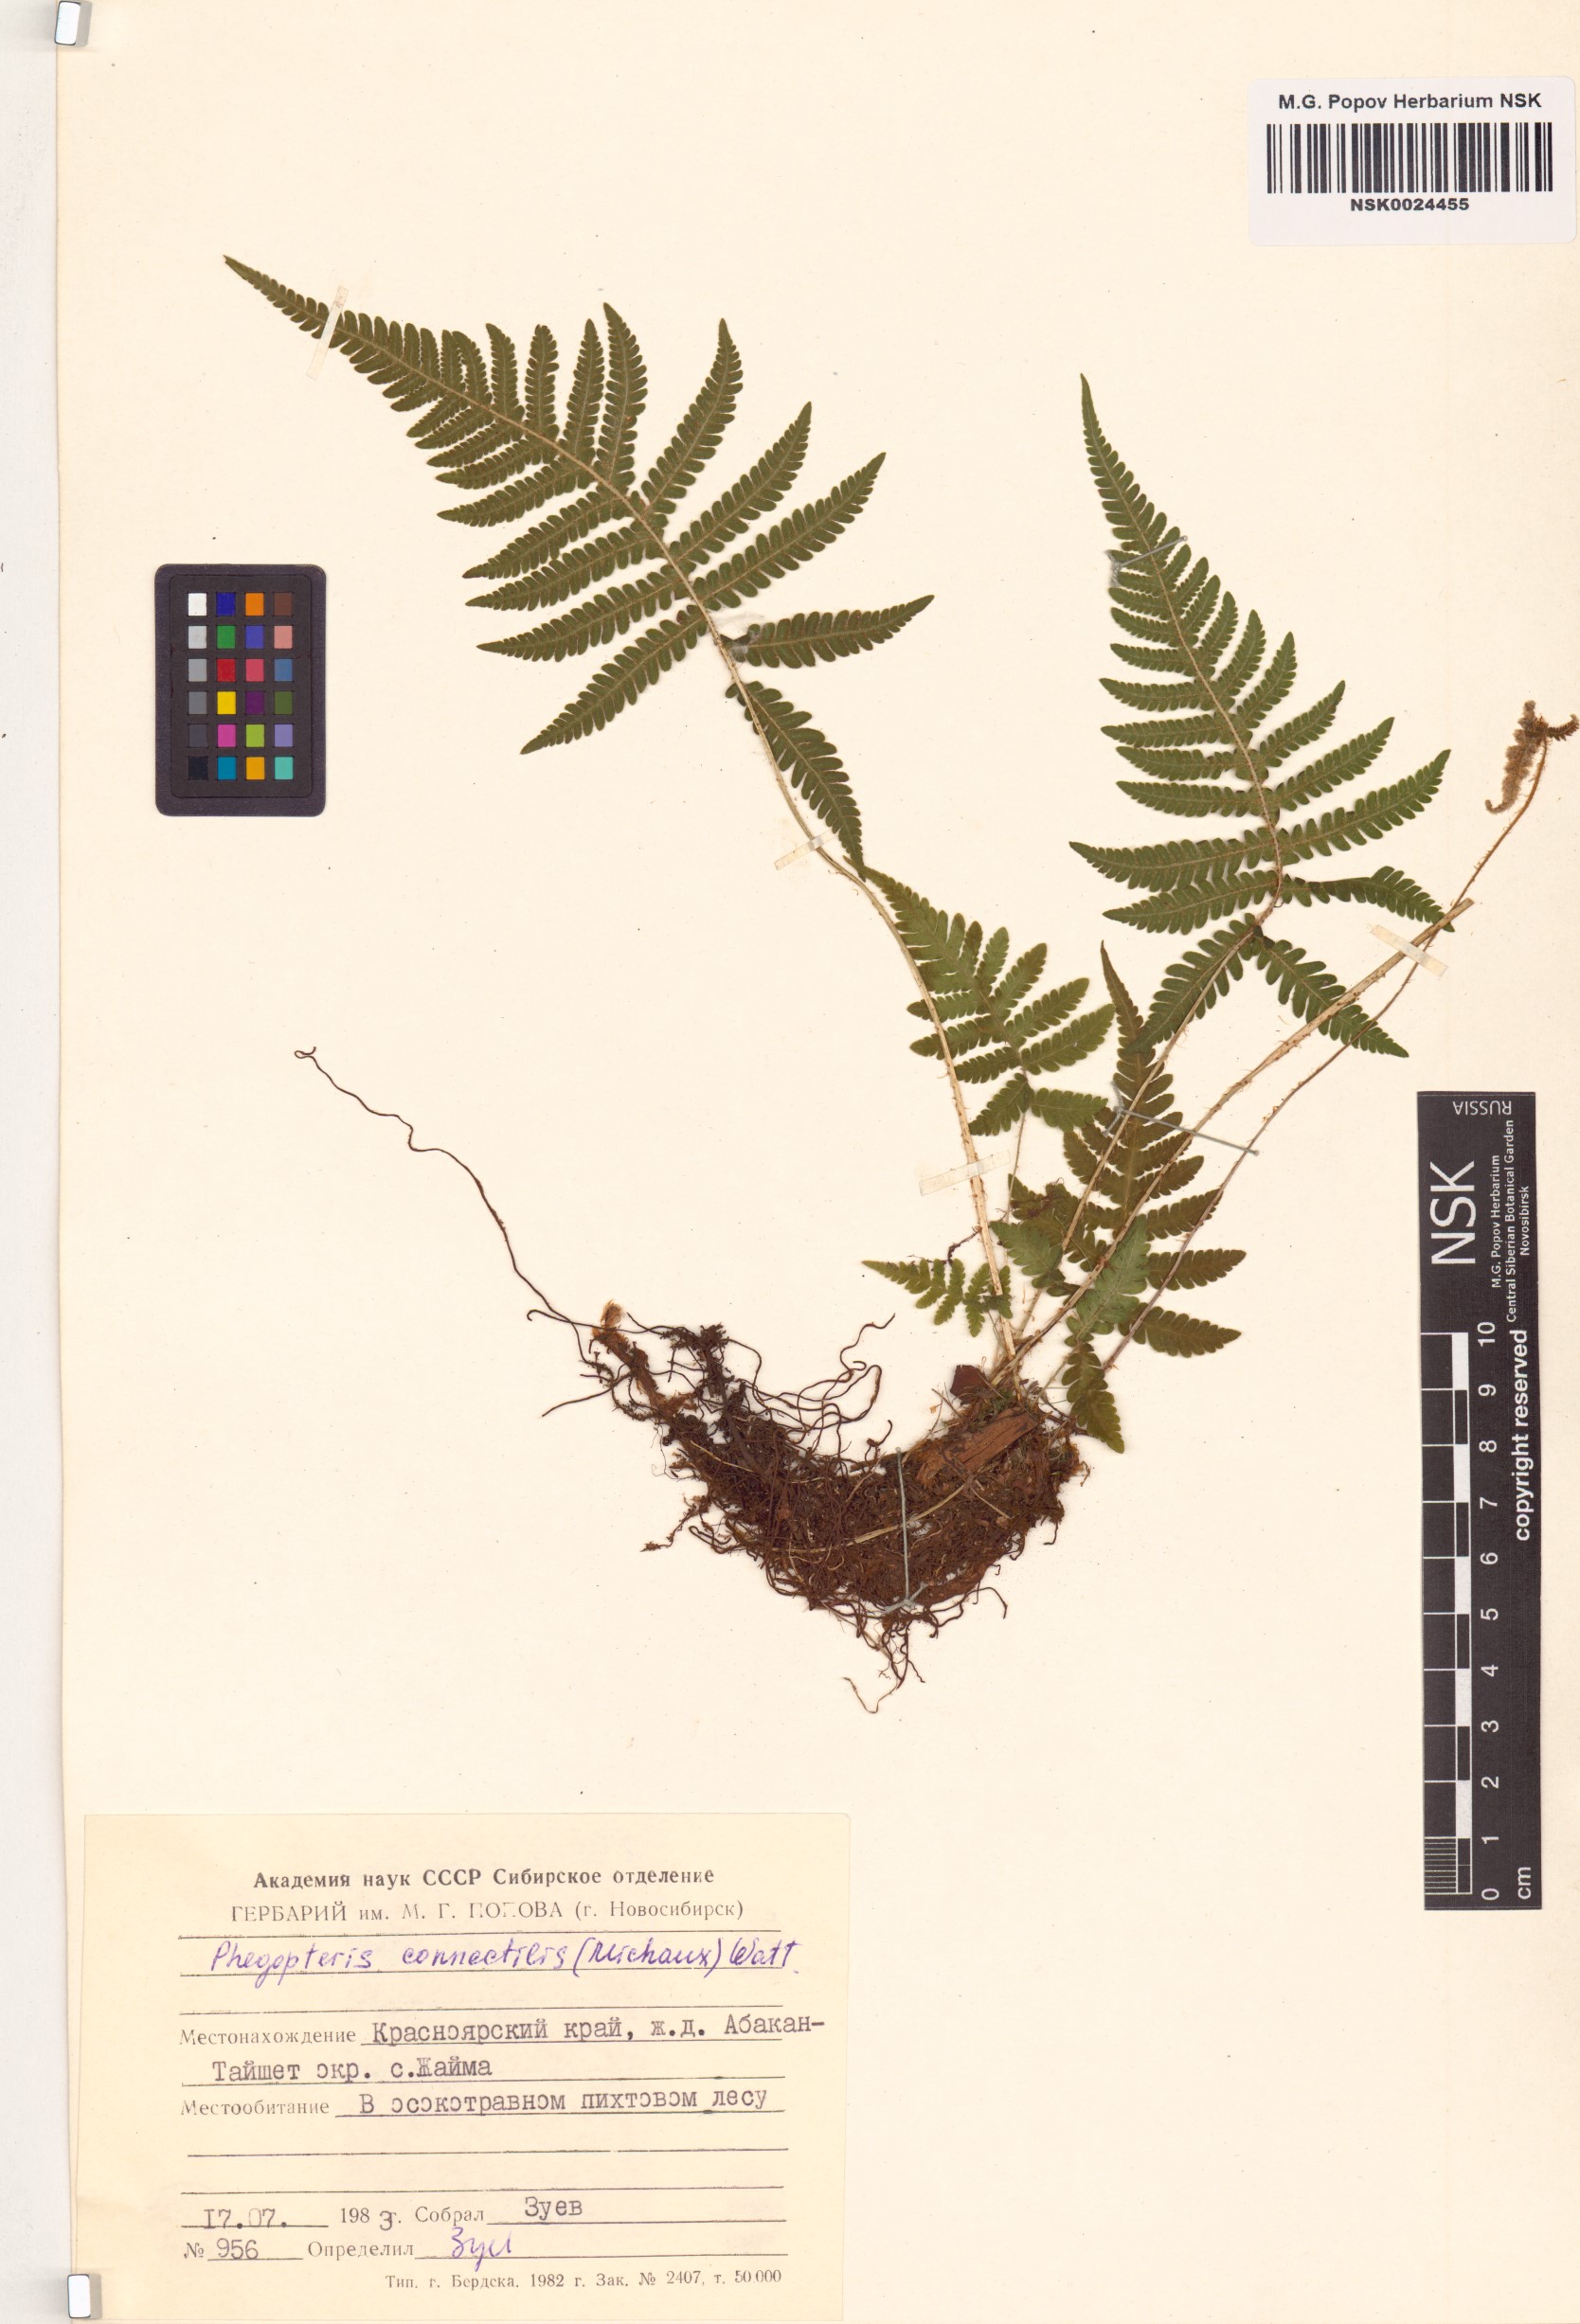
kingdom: Plantae
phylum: Tracheophyta
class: Polypodiopsida
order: Polypodiales
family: Thelypteridaceae
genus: Phegopteris
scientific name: Phegopteris connectilis
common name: Beech fern
